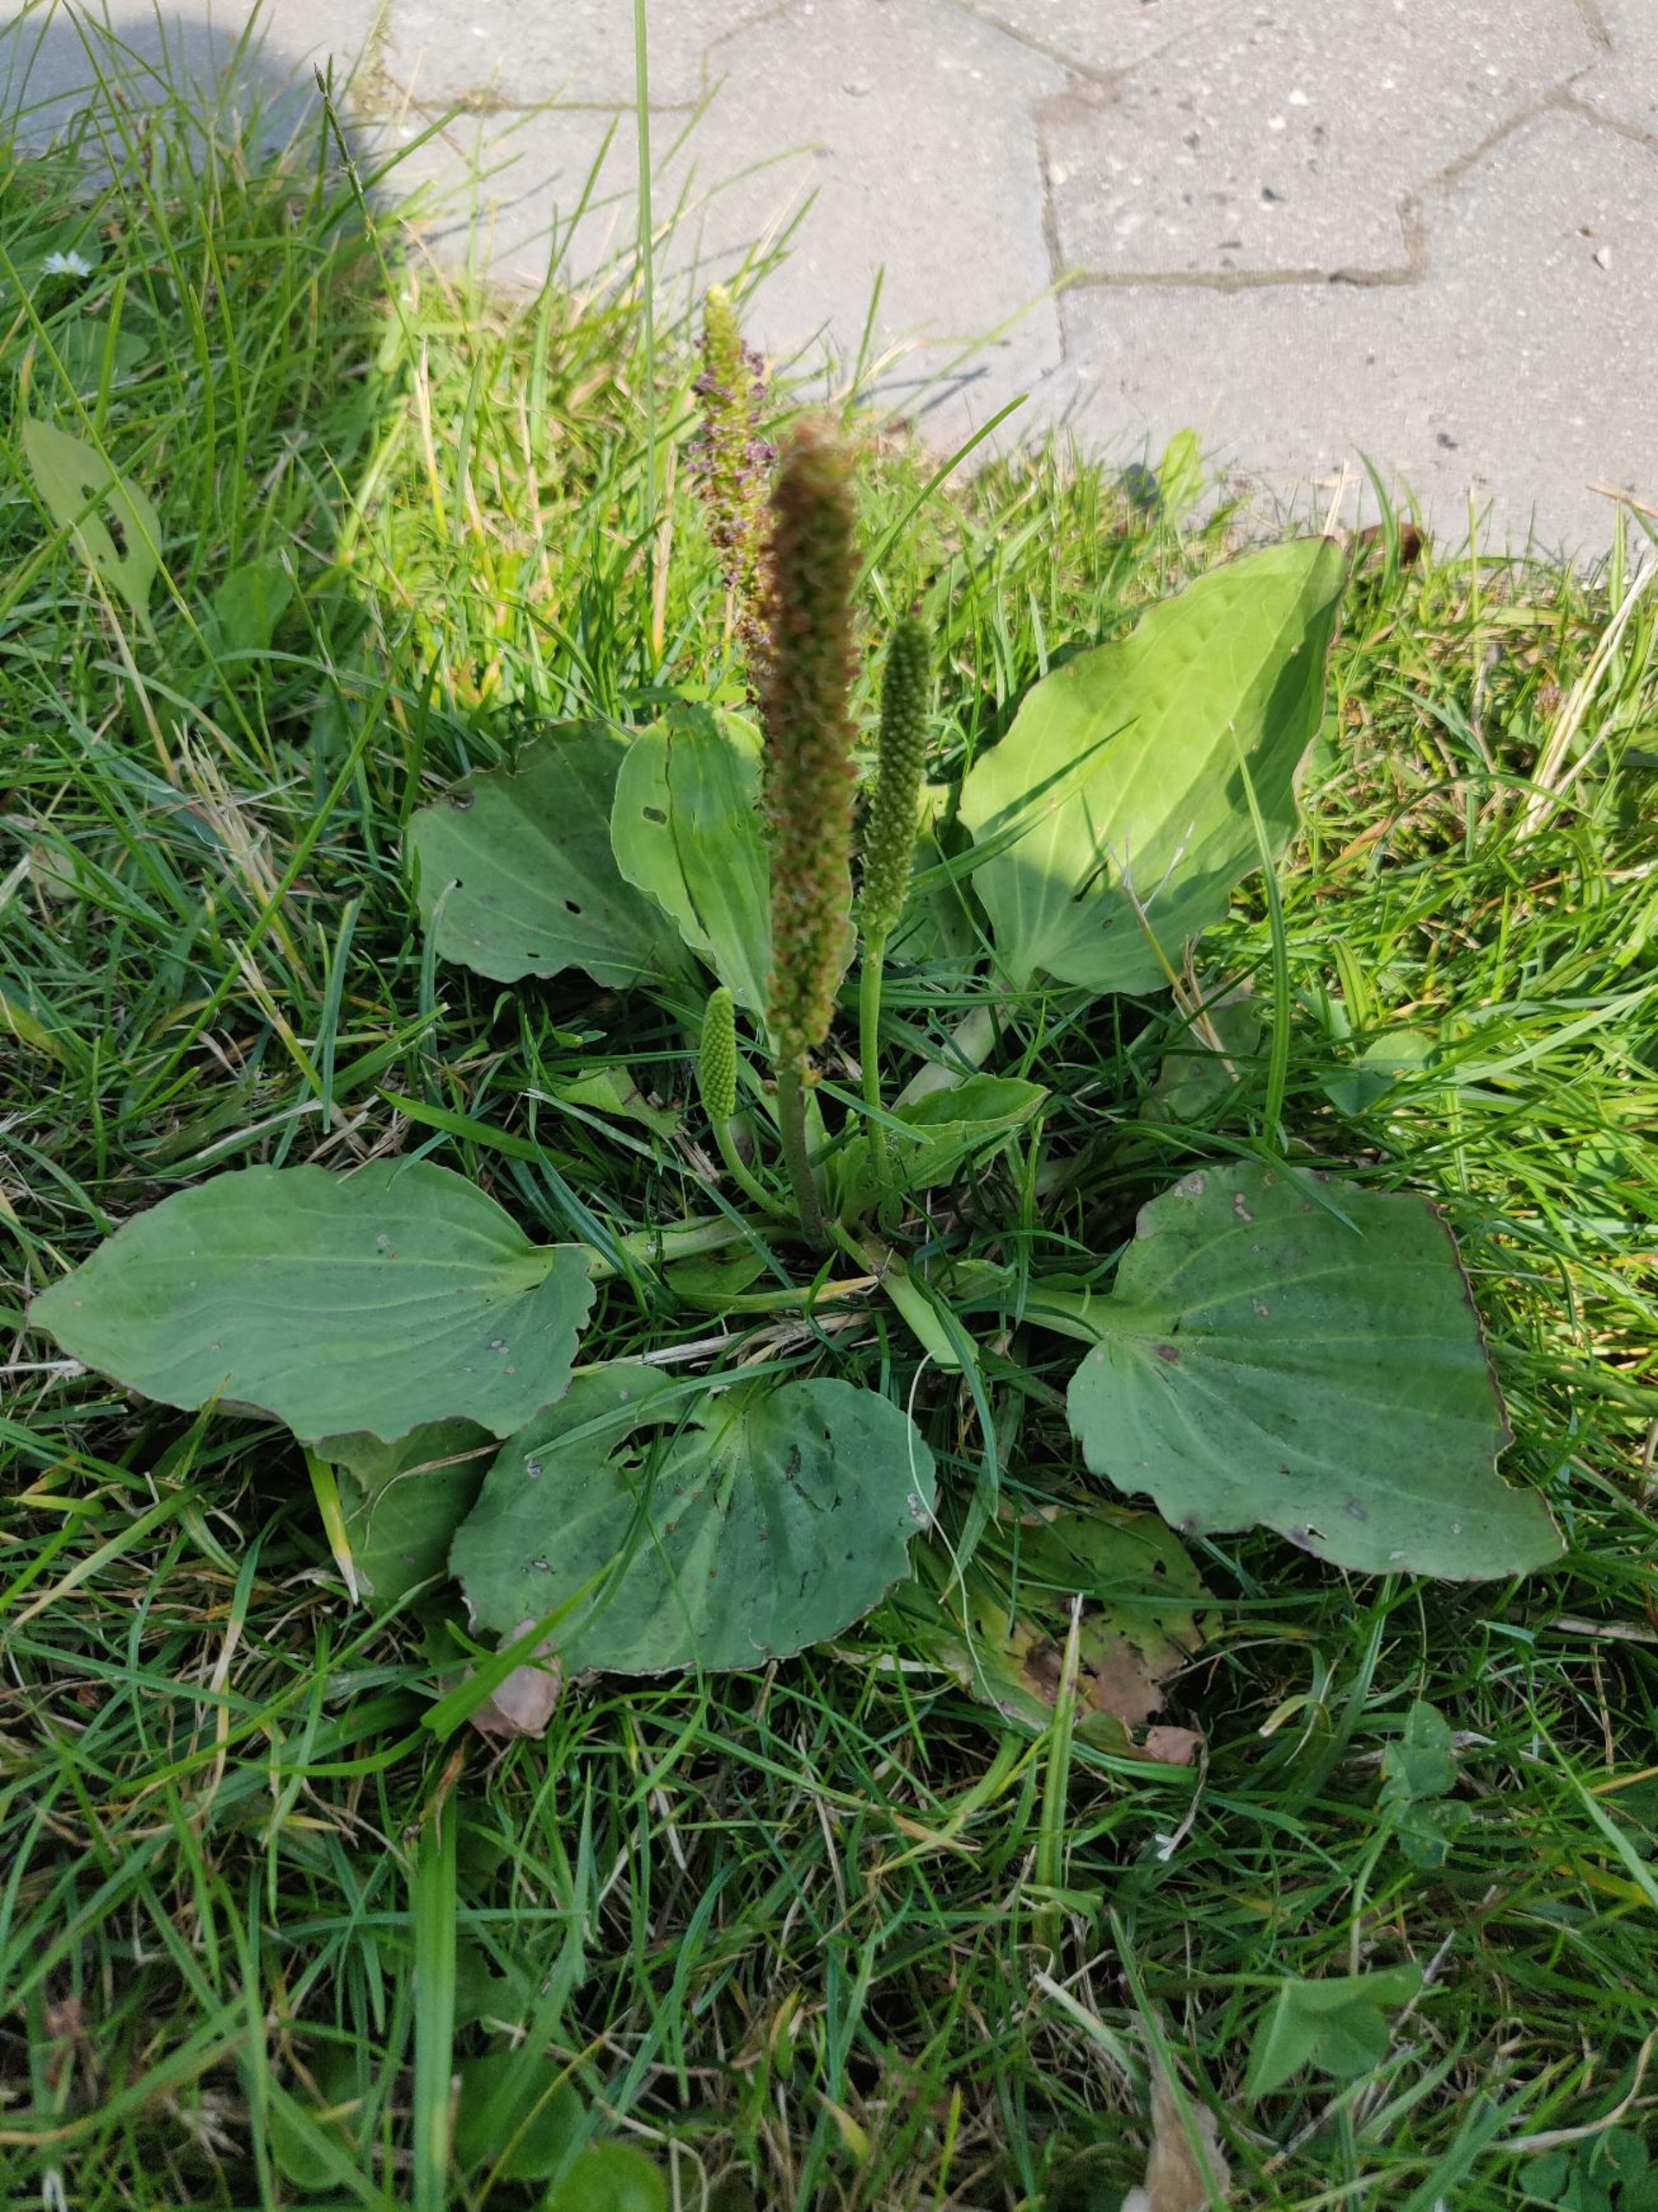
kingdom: Plantae
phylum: Tracheophyta
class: Magnoliopsida
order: Lamiales
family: Plantaginaceae
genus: Plantago
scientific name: Plantago major
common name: Glat vejbred
